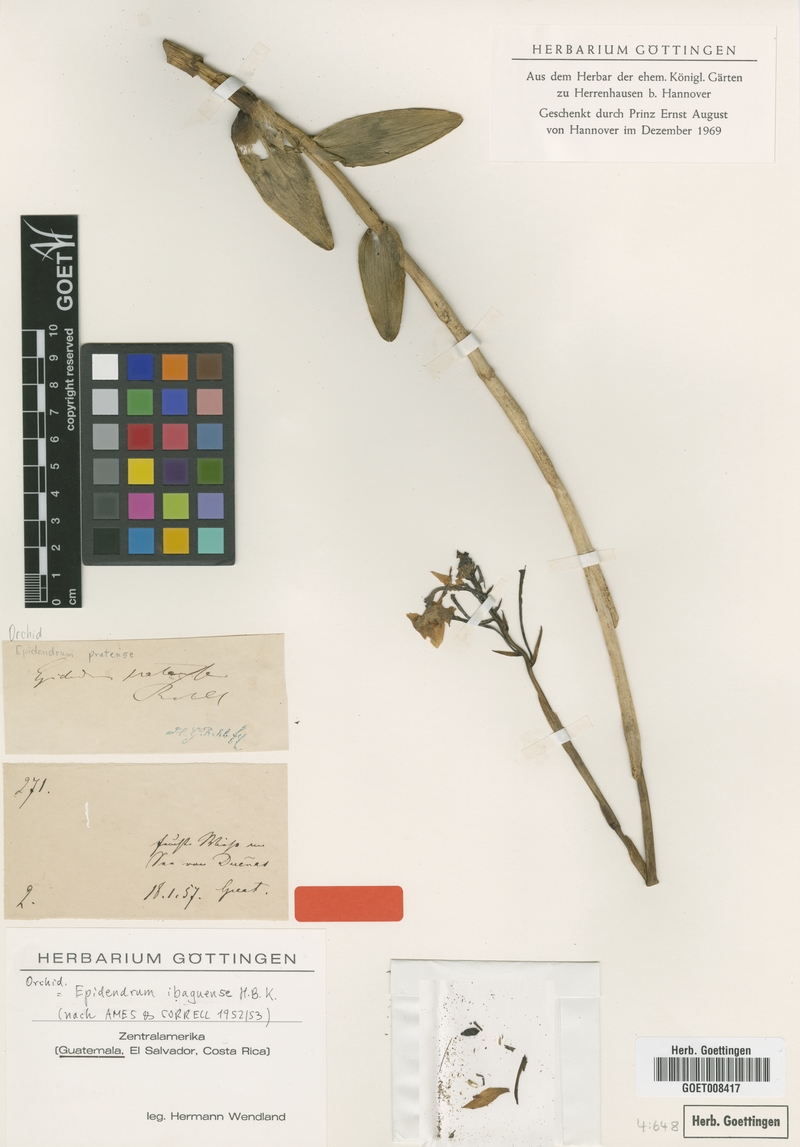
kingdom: Plantae
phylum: Tracheophyta
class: Liliopsida
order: Asparagales
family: Orchidaceae
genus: Epidendrum
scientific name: Epidendrum ibaguense
